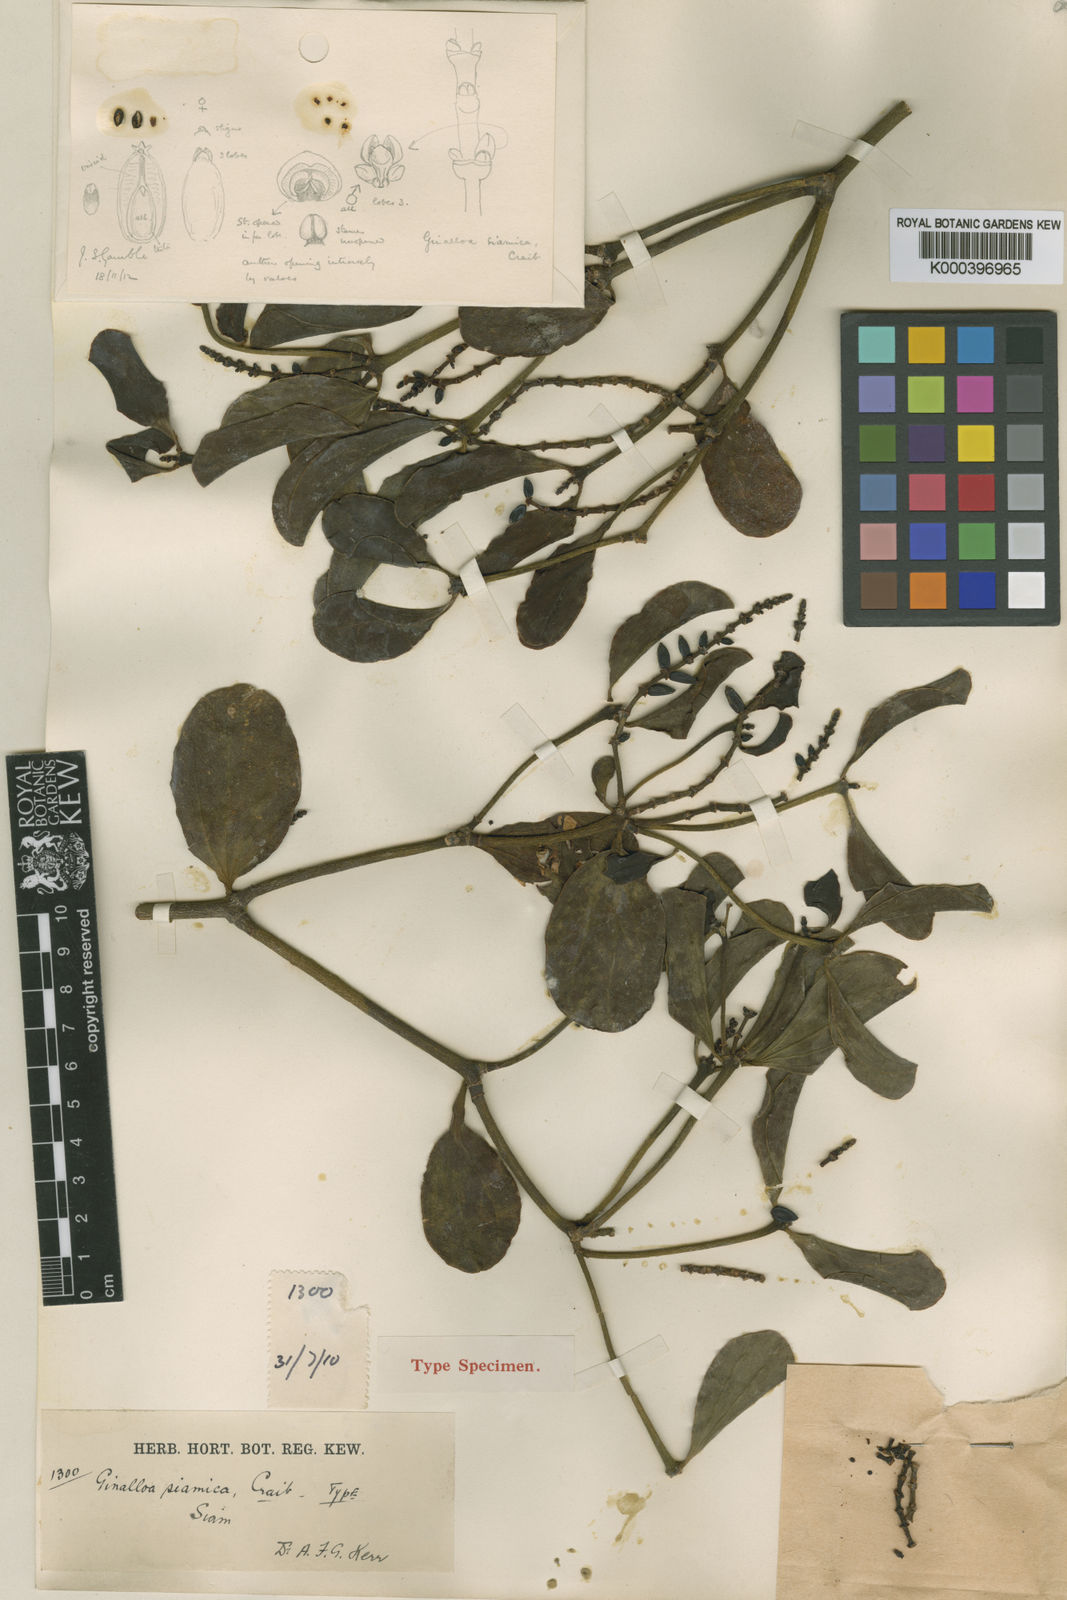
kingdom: Plantae
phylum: Tracheophyta
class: Magnoliopsida
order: Santalales
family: Viscaceae
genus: Ginalloa
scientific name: Ginalloa siamica
